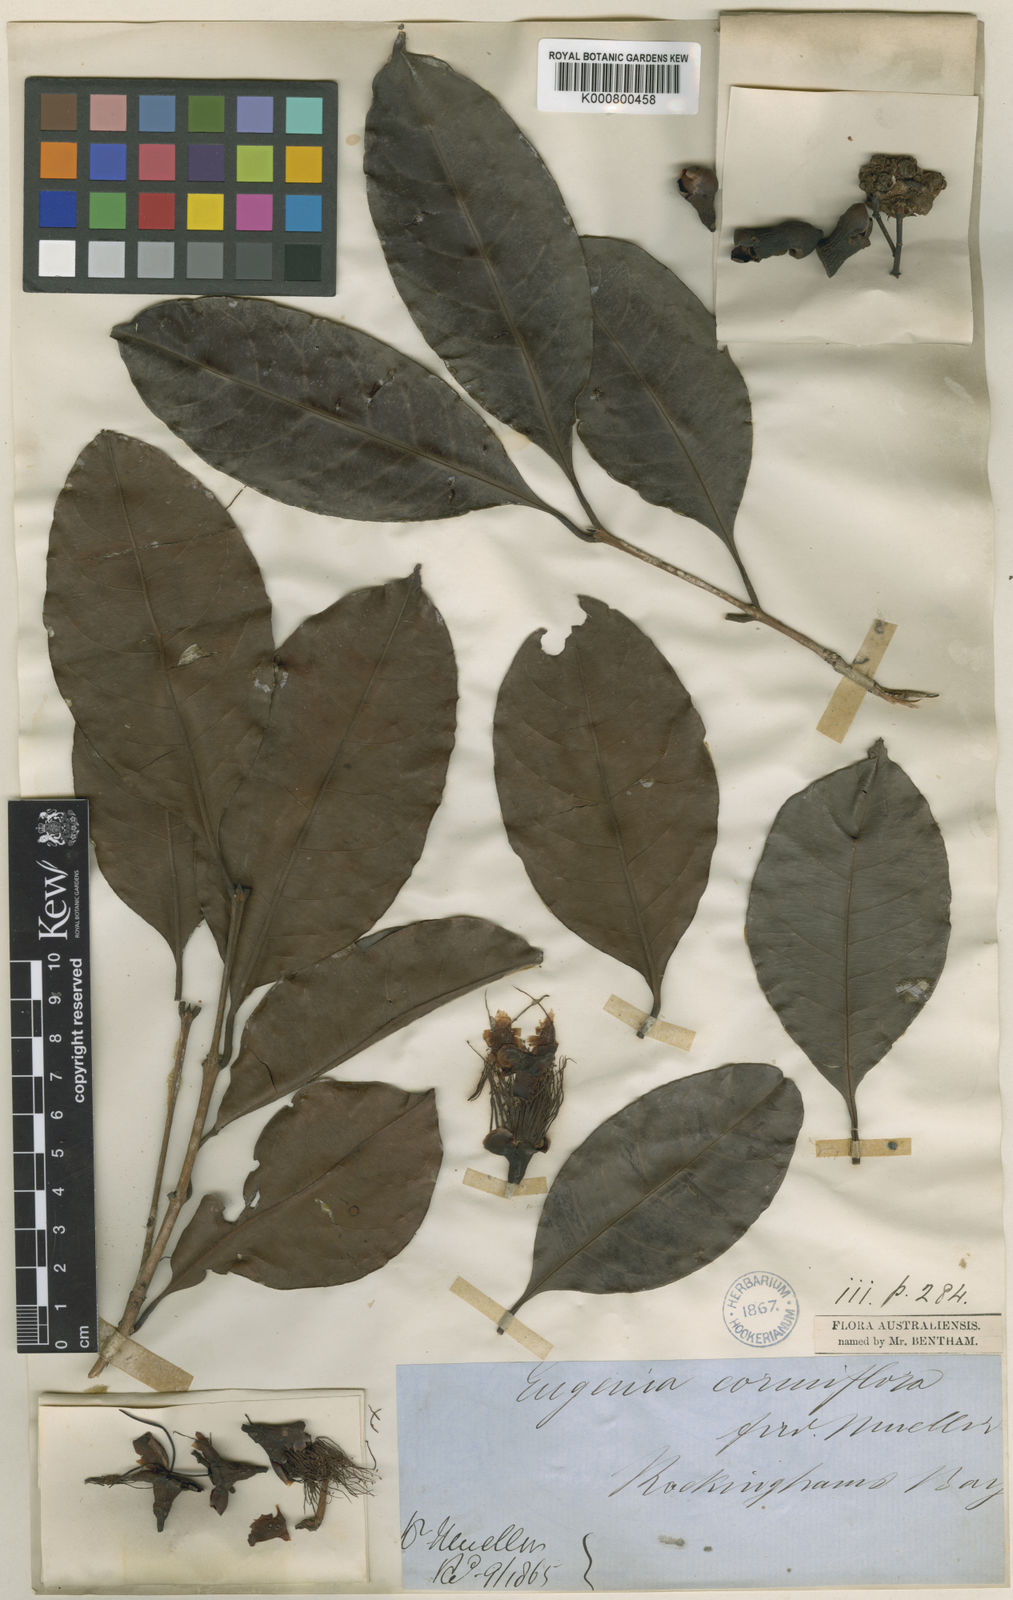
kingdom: Plantae
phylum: Tracheophyta
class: Magnoliopsida
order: Myrtales
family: Myrtaceae
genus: Syzygium
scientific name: Syzygium cormiflorum
